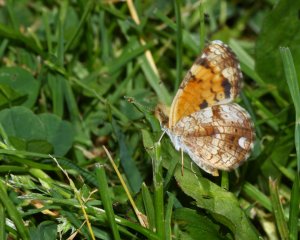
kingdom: Animalia
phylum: Arthropoda
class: Insecta
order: Lepidoptera
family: Nymphalidae
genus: Phyciodes
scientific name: Phyciodes tharos
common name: Pearl Crescent
